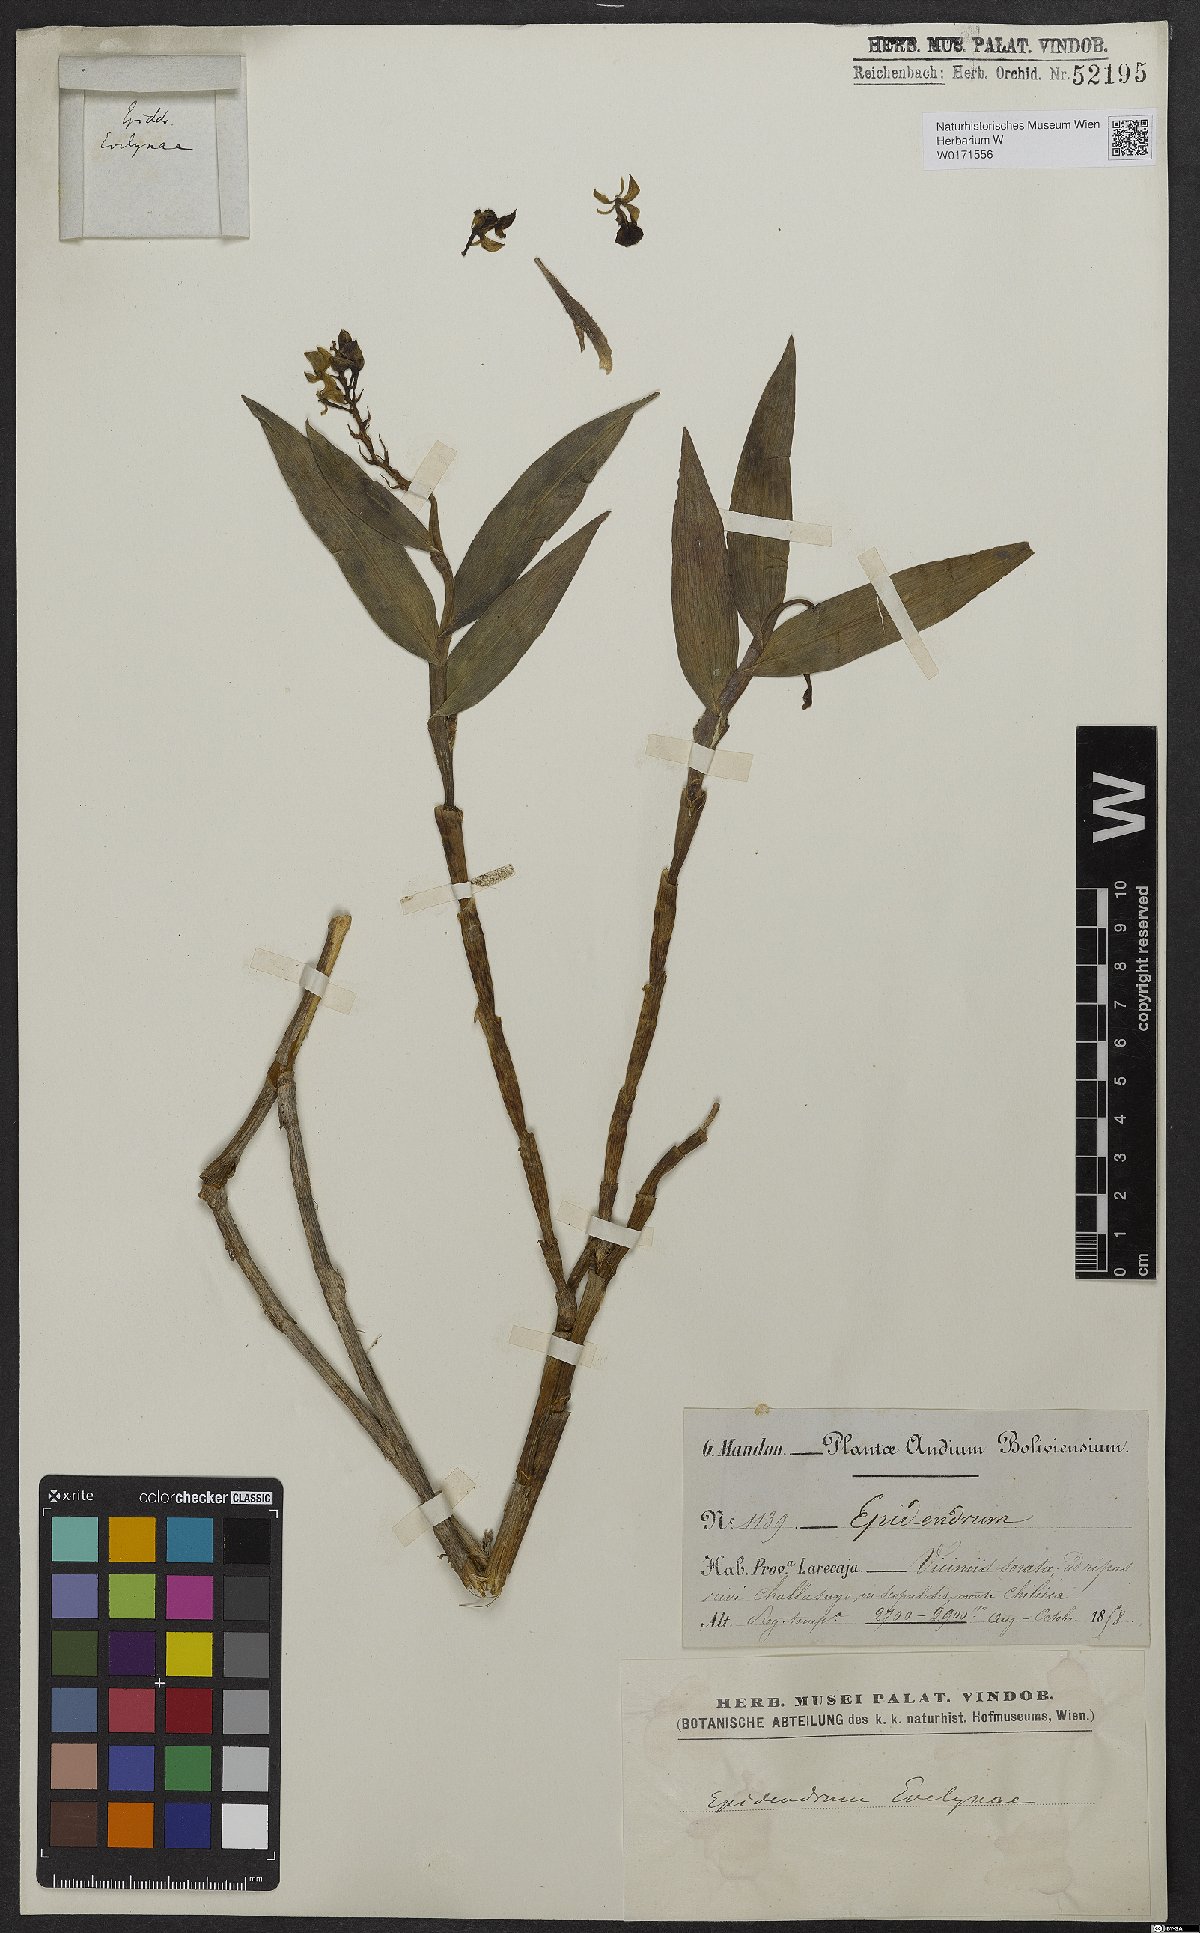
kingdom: Plantae
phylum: Tracheophyta
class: Liliopsida
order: Asparagales
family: Orchidaceae
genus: Epidendrum
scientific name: Epidendrum evelynae
